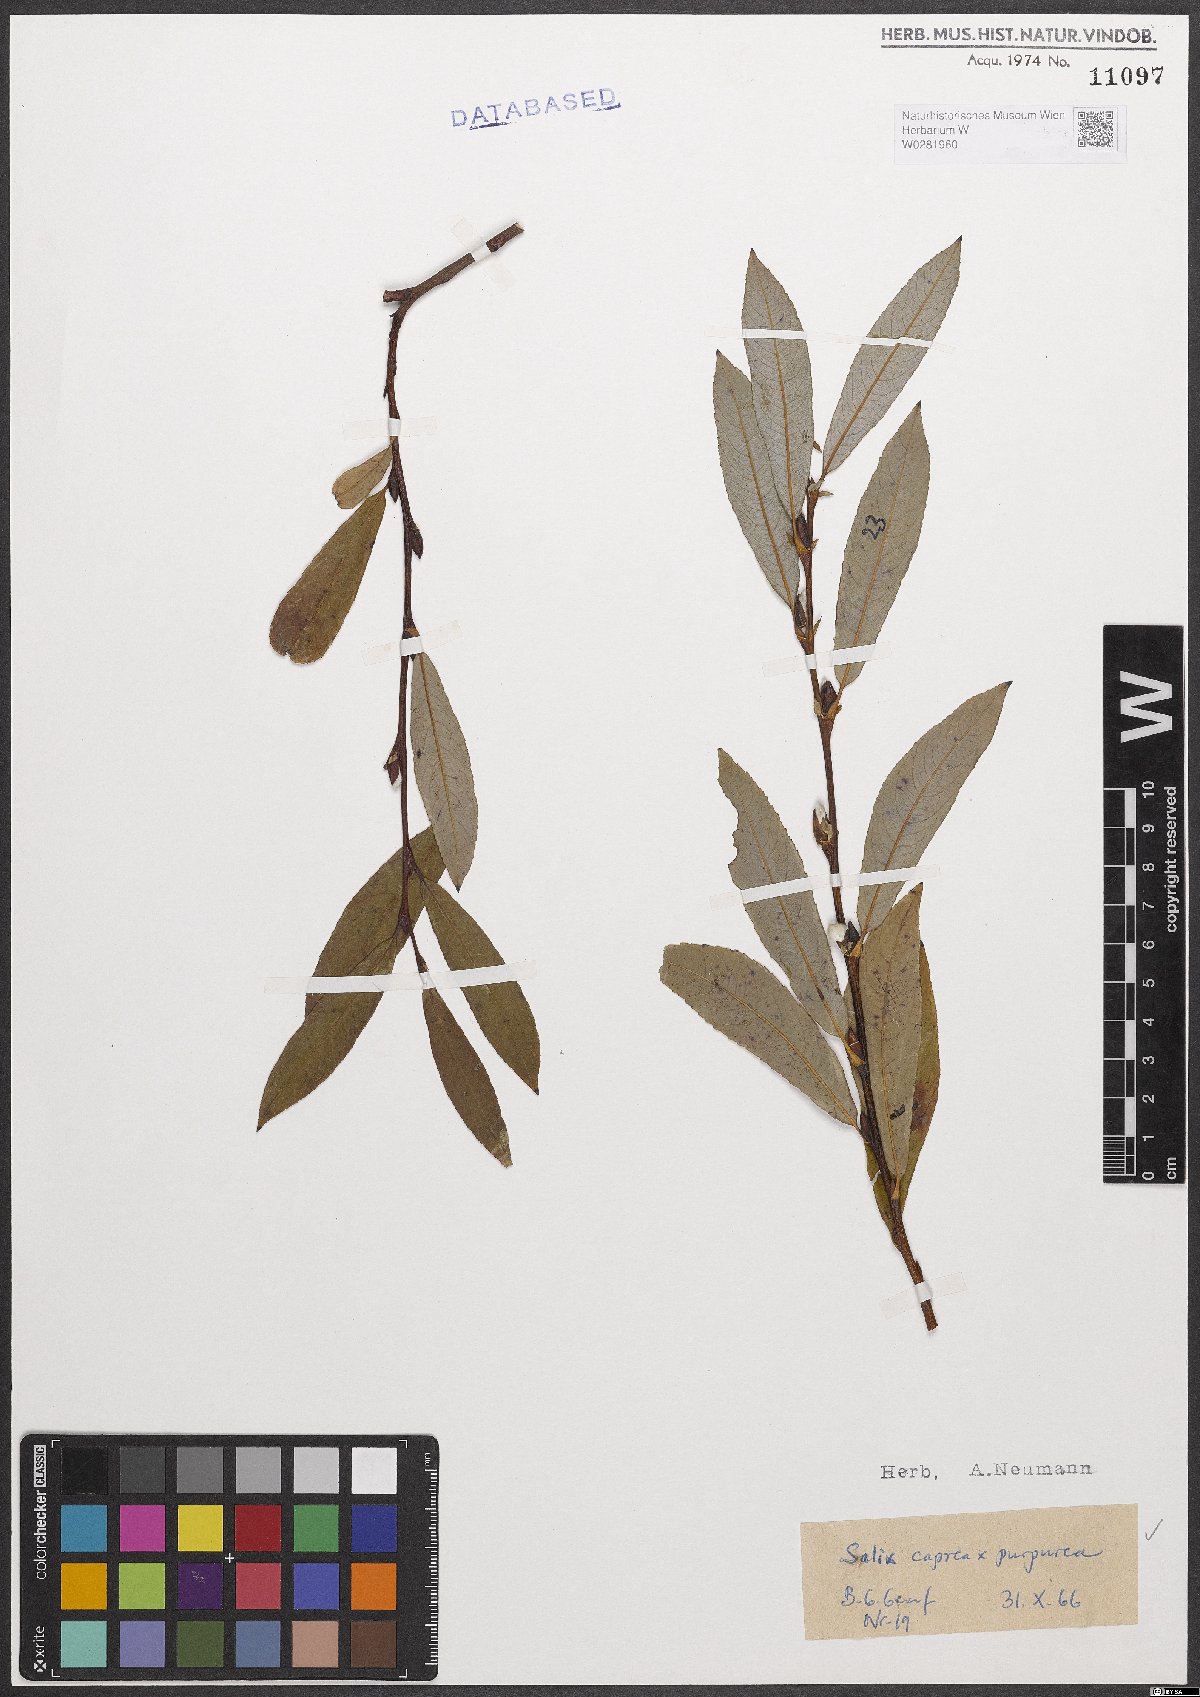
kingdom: Plantae
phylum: Tracheophyta
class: Magnoliopsida
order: Malpighiales
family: Salicaceae
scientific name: Salicaceae
